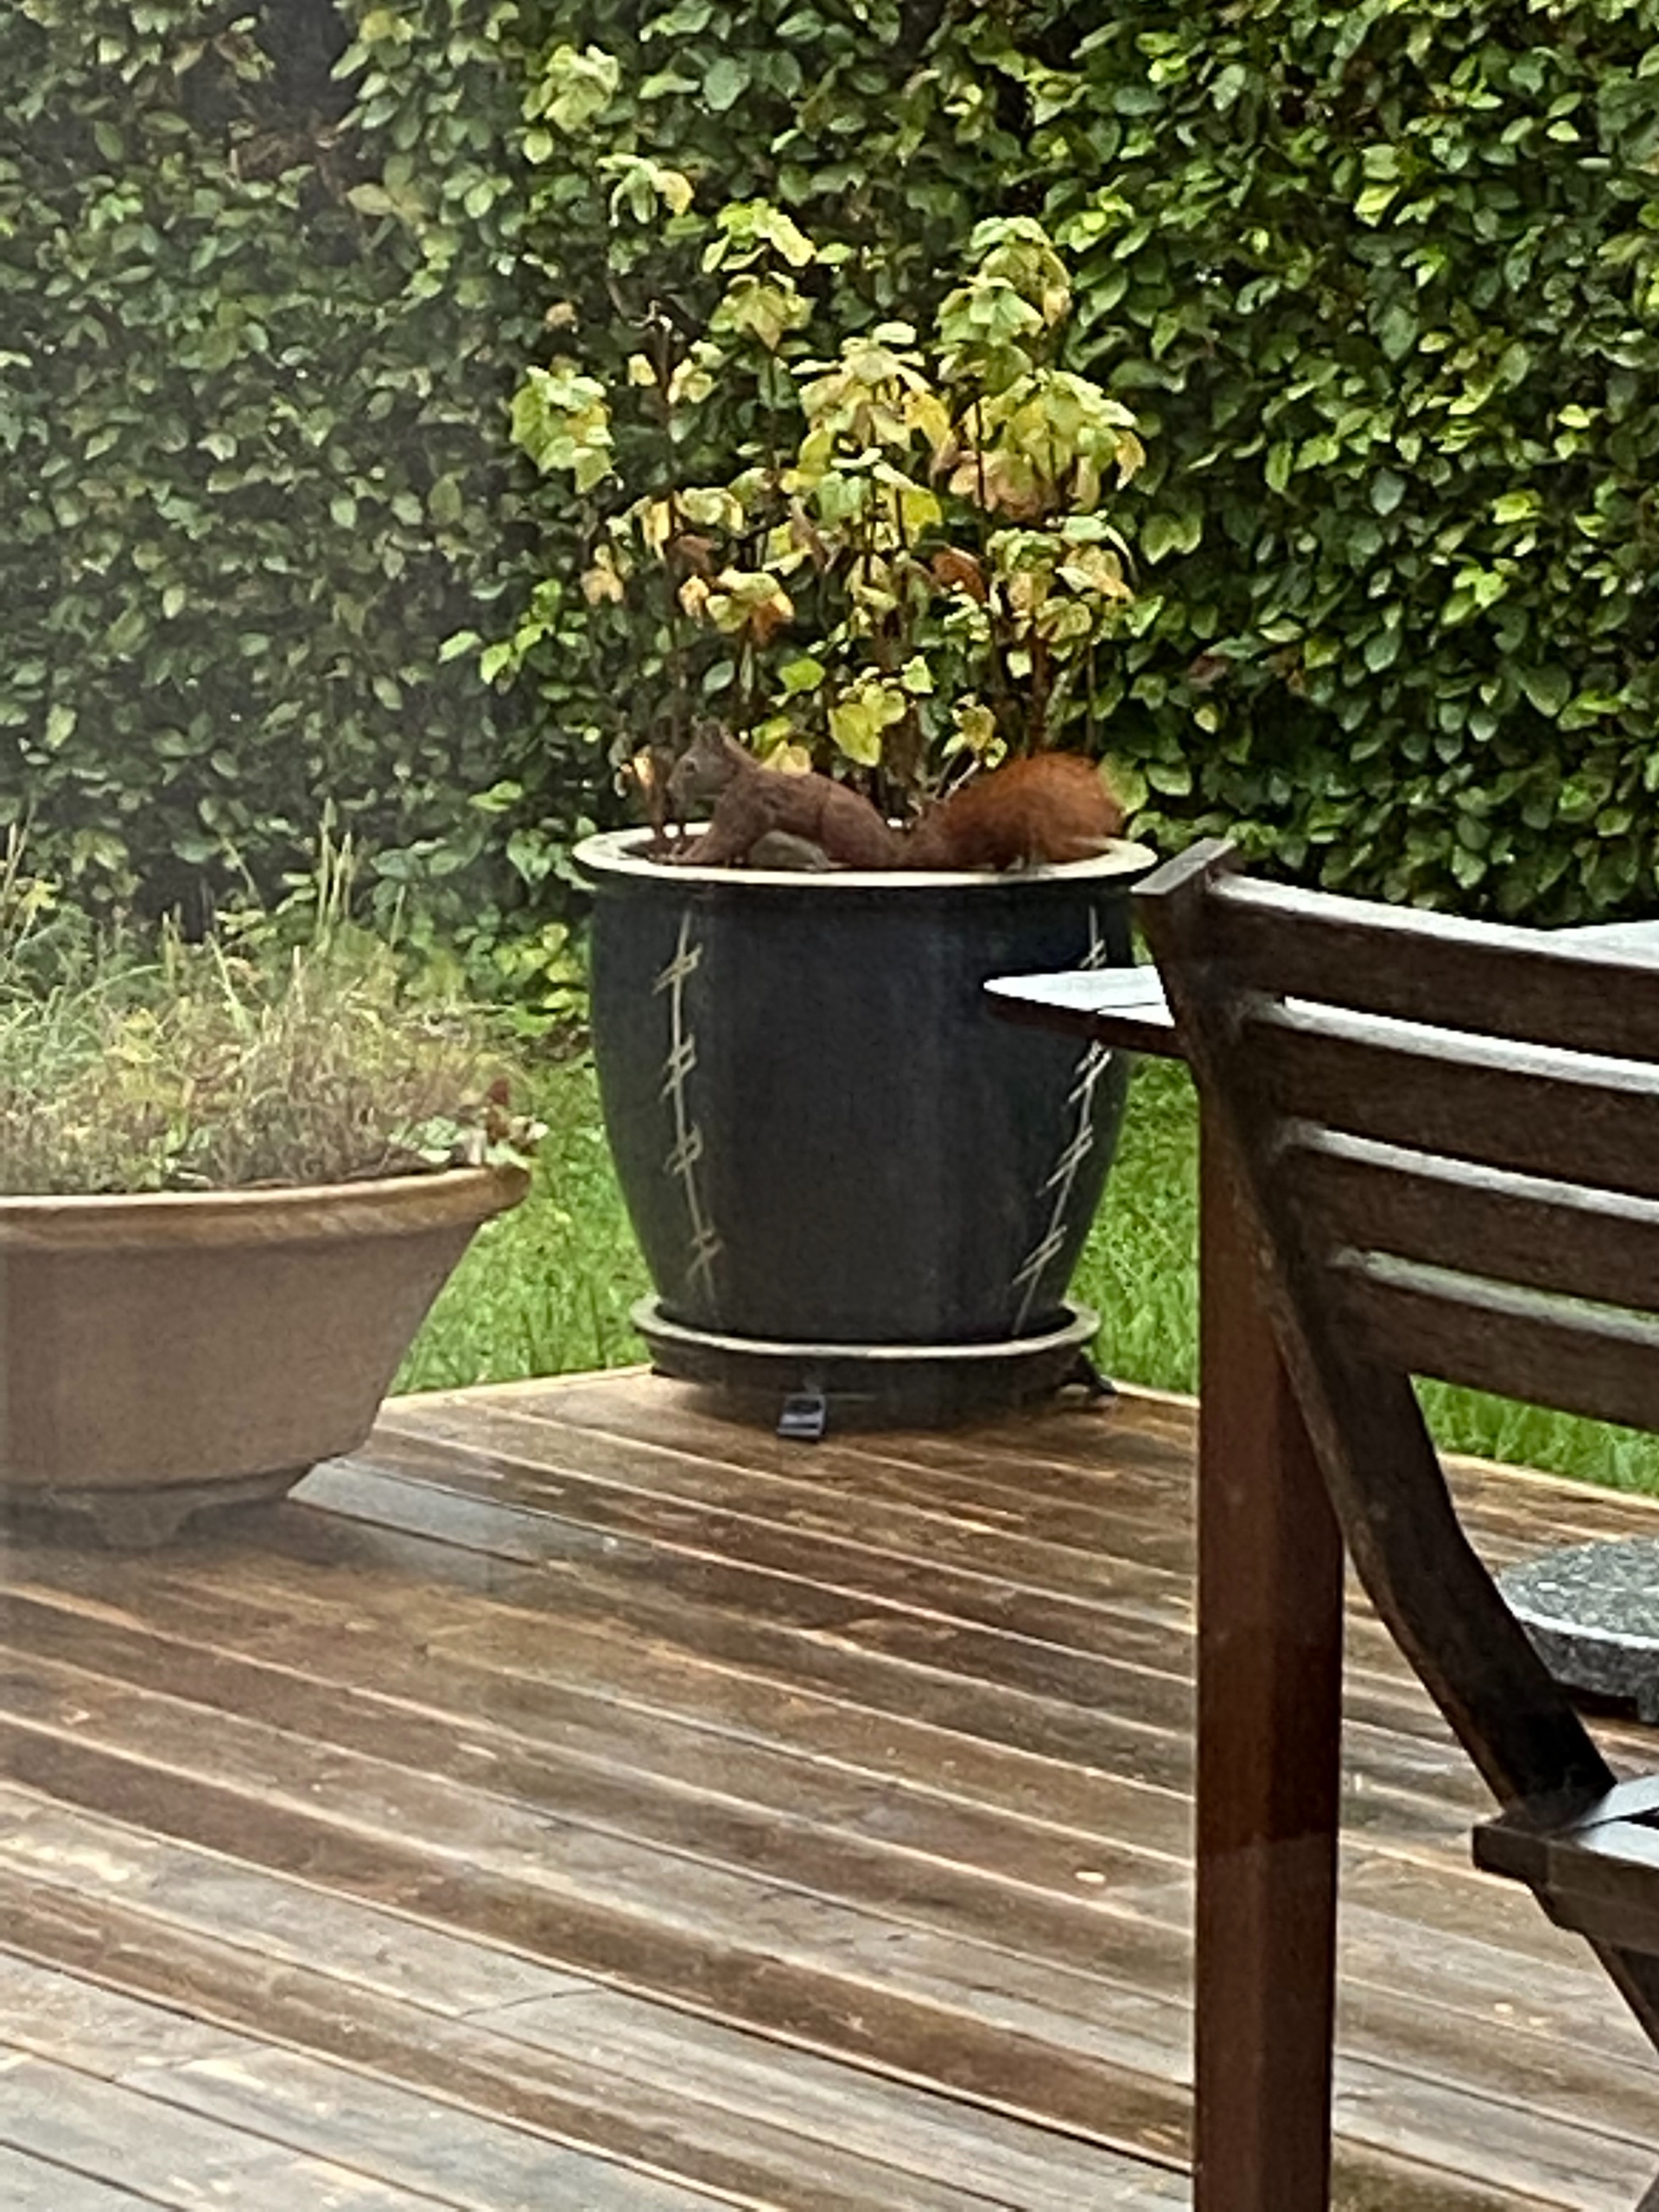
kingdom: Animalia
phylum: Chordata
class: Mammalia
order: Rodentia
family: Sciuridae
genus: Sciurus
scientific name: Sciurus vulgaris
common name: Egern
